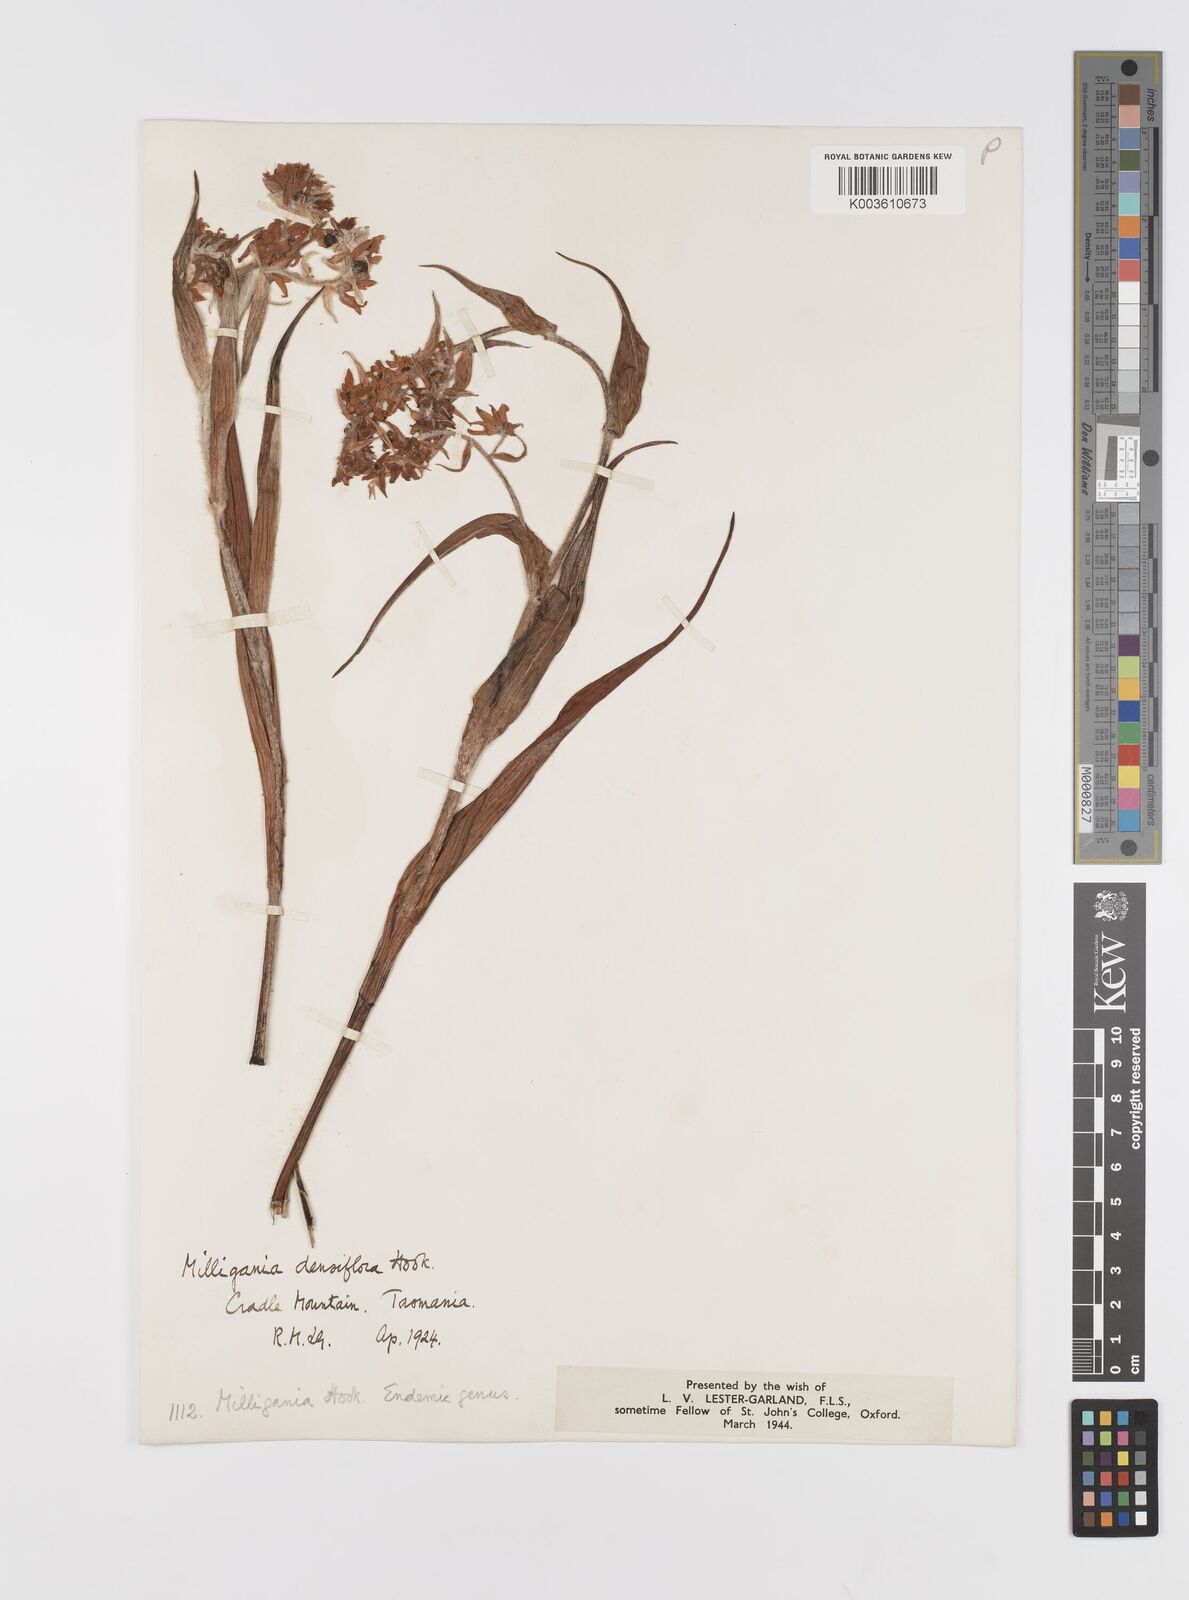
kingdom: Plantae
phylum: Tracheophyta
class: Liliopsida
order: Asparagales
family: Asteliaceae
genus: Milligania
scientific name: Milligania densiflora
